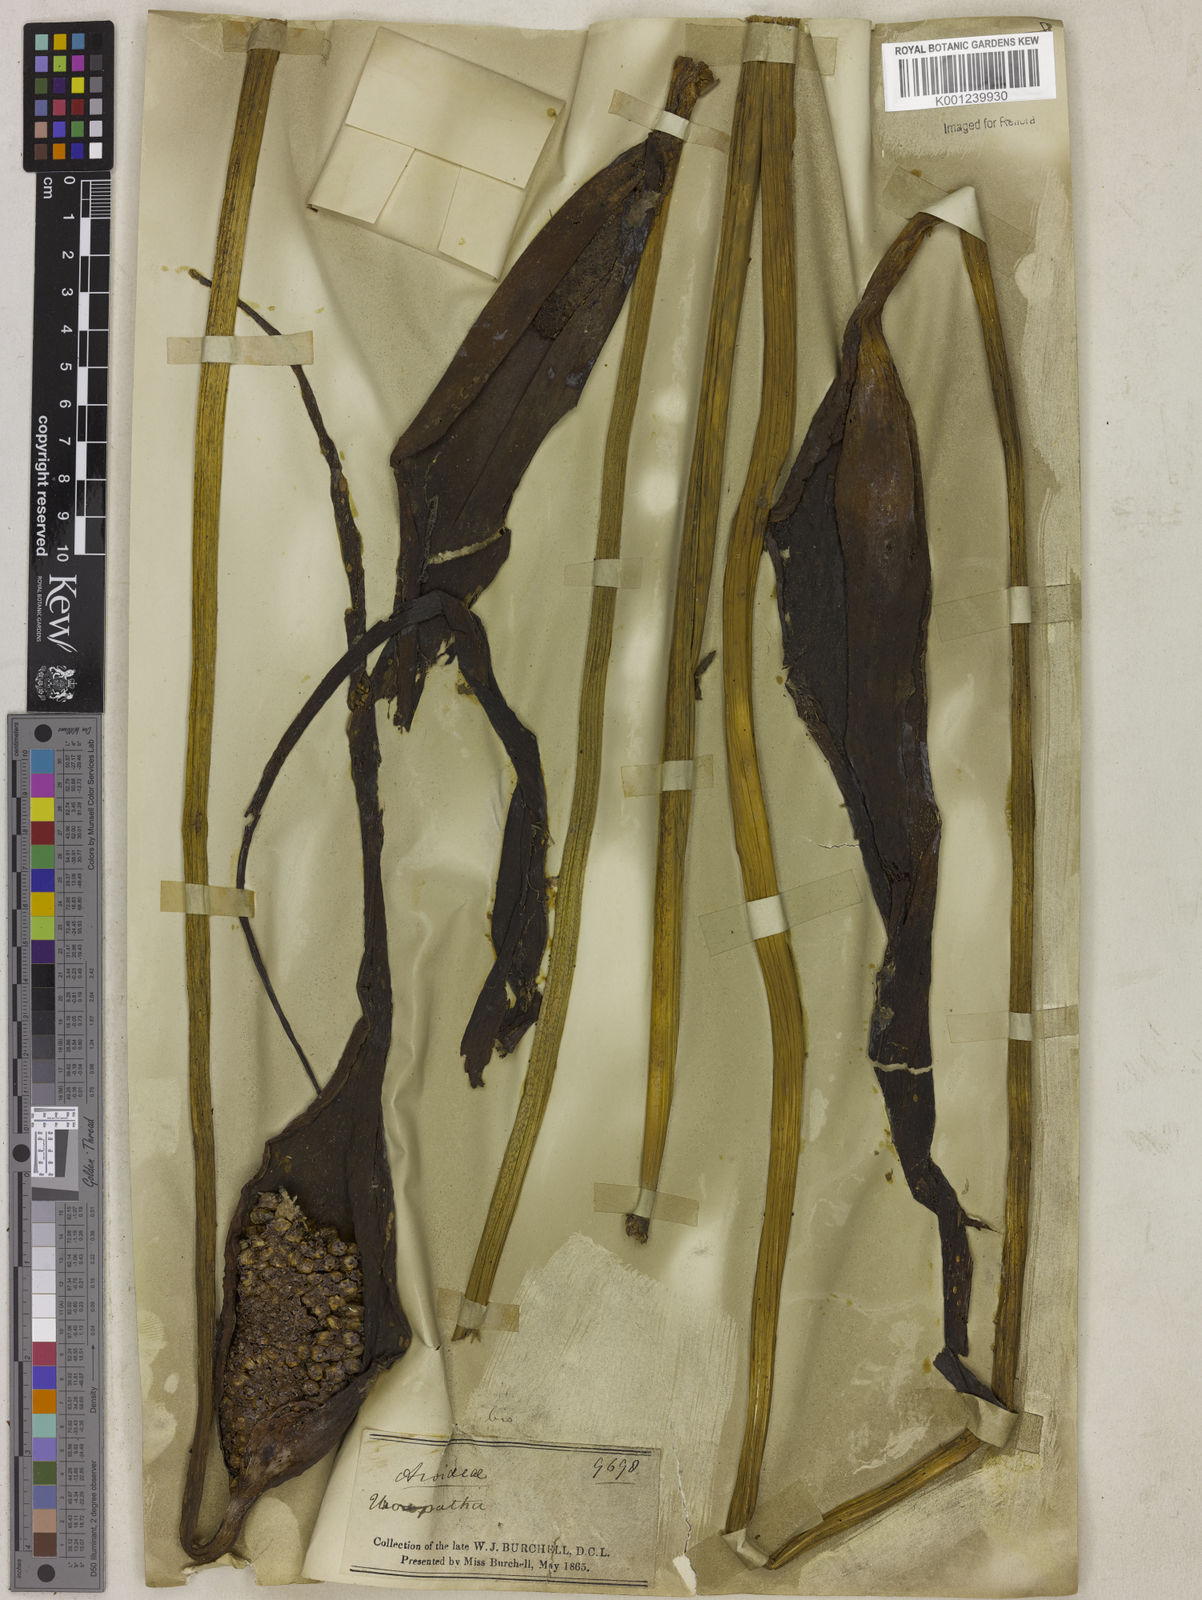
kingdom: Plantae
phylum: Tracheophyta
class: Liliopsida
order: Alismatales
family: Araceae
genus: Urospatha
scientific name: Urospatha sagittifolia
